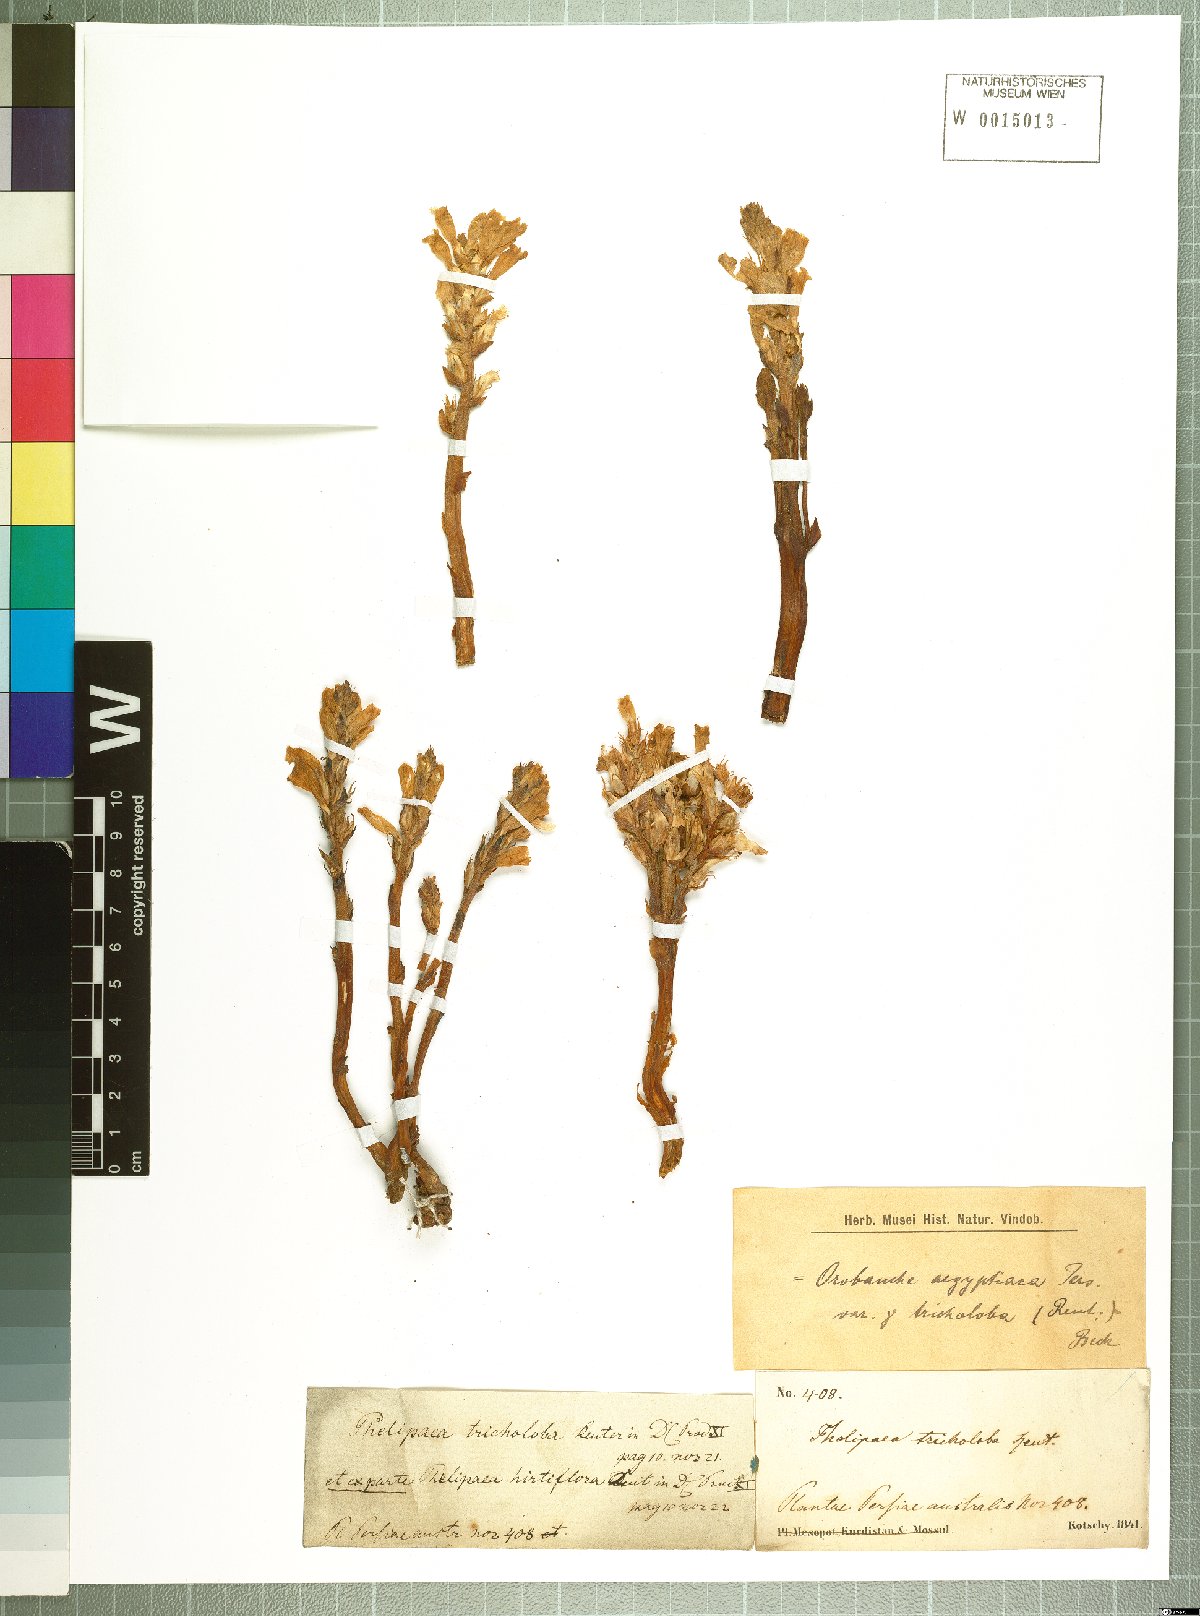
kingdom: Plantae
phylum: Tracheophyta
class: Magnoliopsida
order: Lamiales
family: Orobanchaceae
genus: Phelipanche
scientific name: Phelipanche hirtiflora
